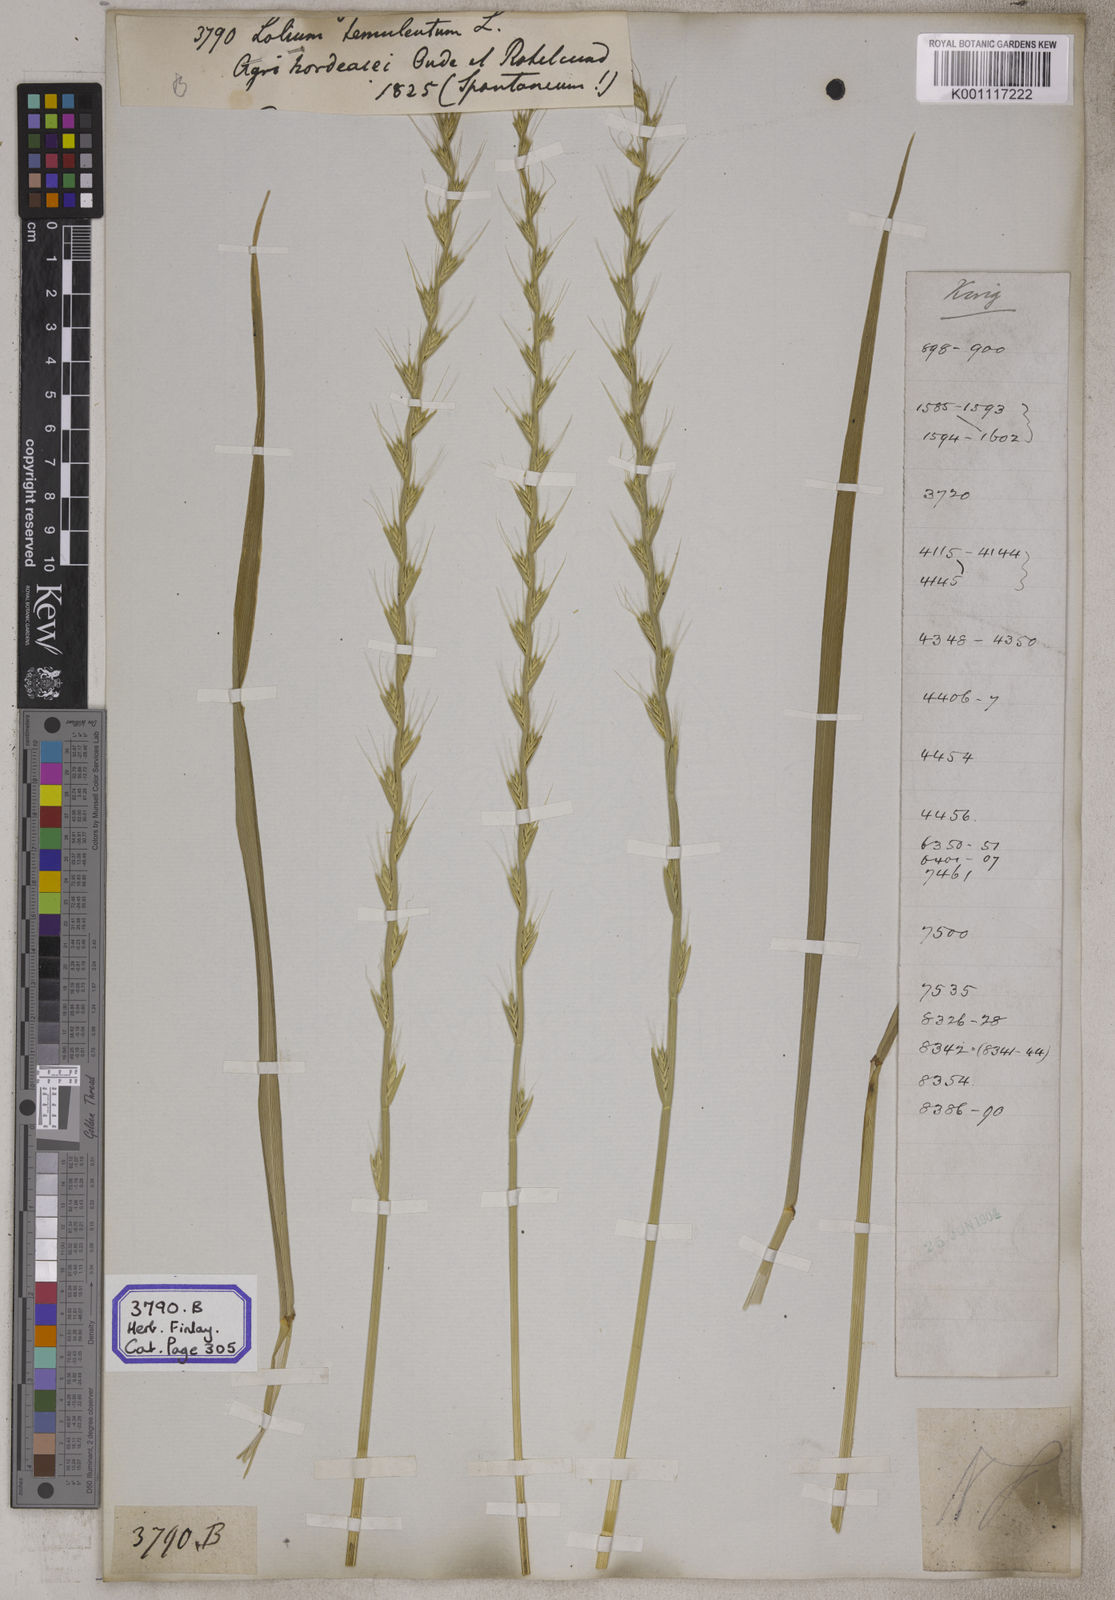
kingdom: Plantae
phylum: Tracheophyta
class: Liliopsida
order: Poales
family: Poaceae
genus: Lolium
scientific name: Lolium temulentum
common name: Darnel
